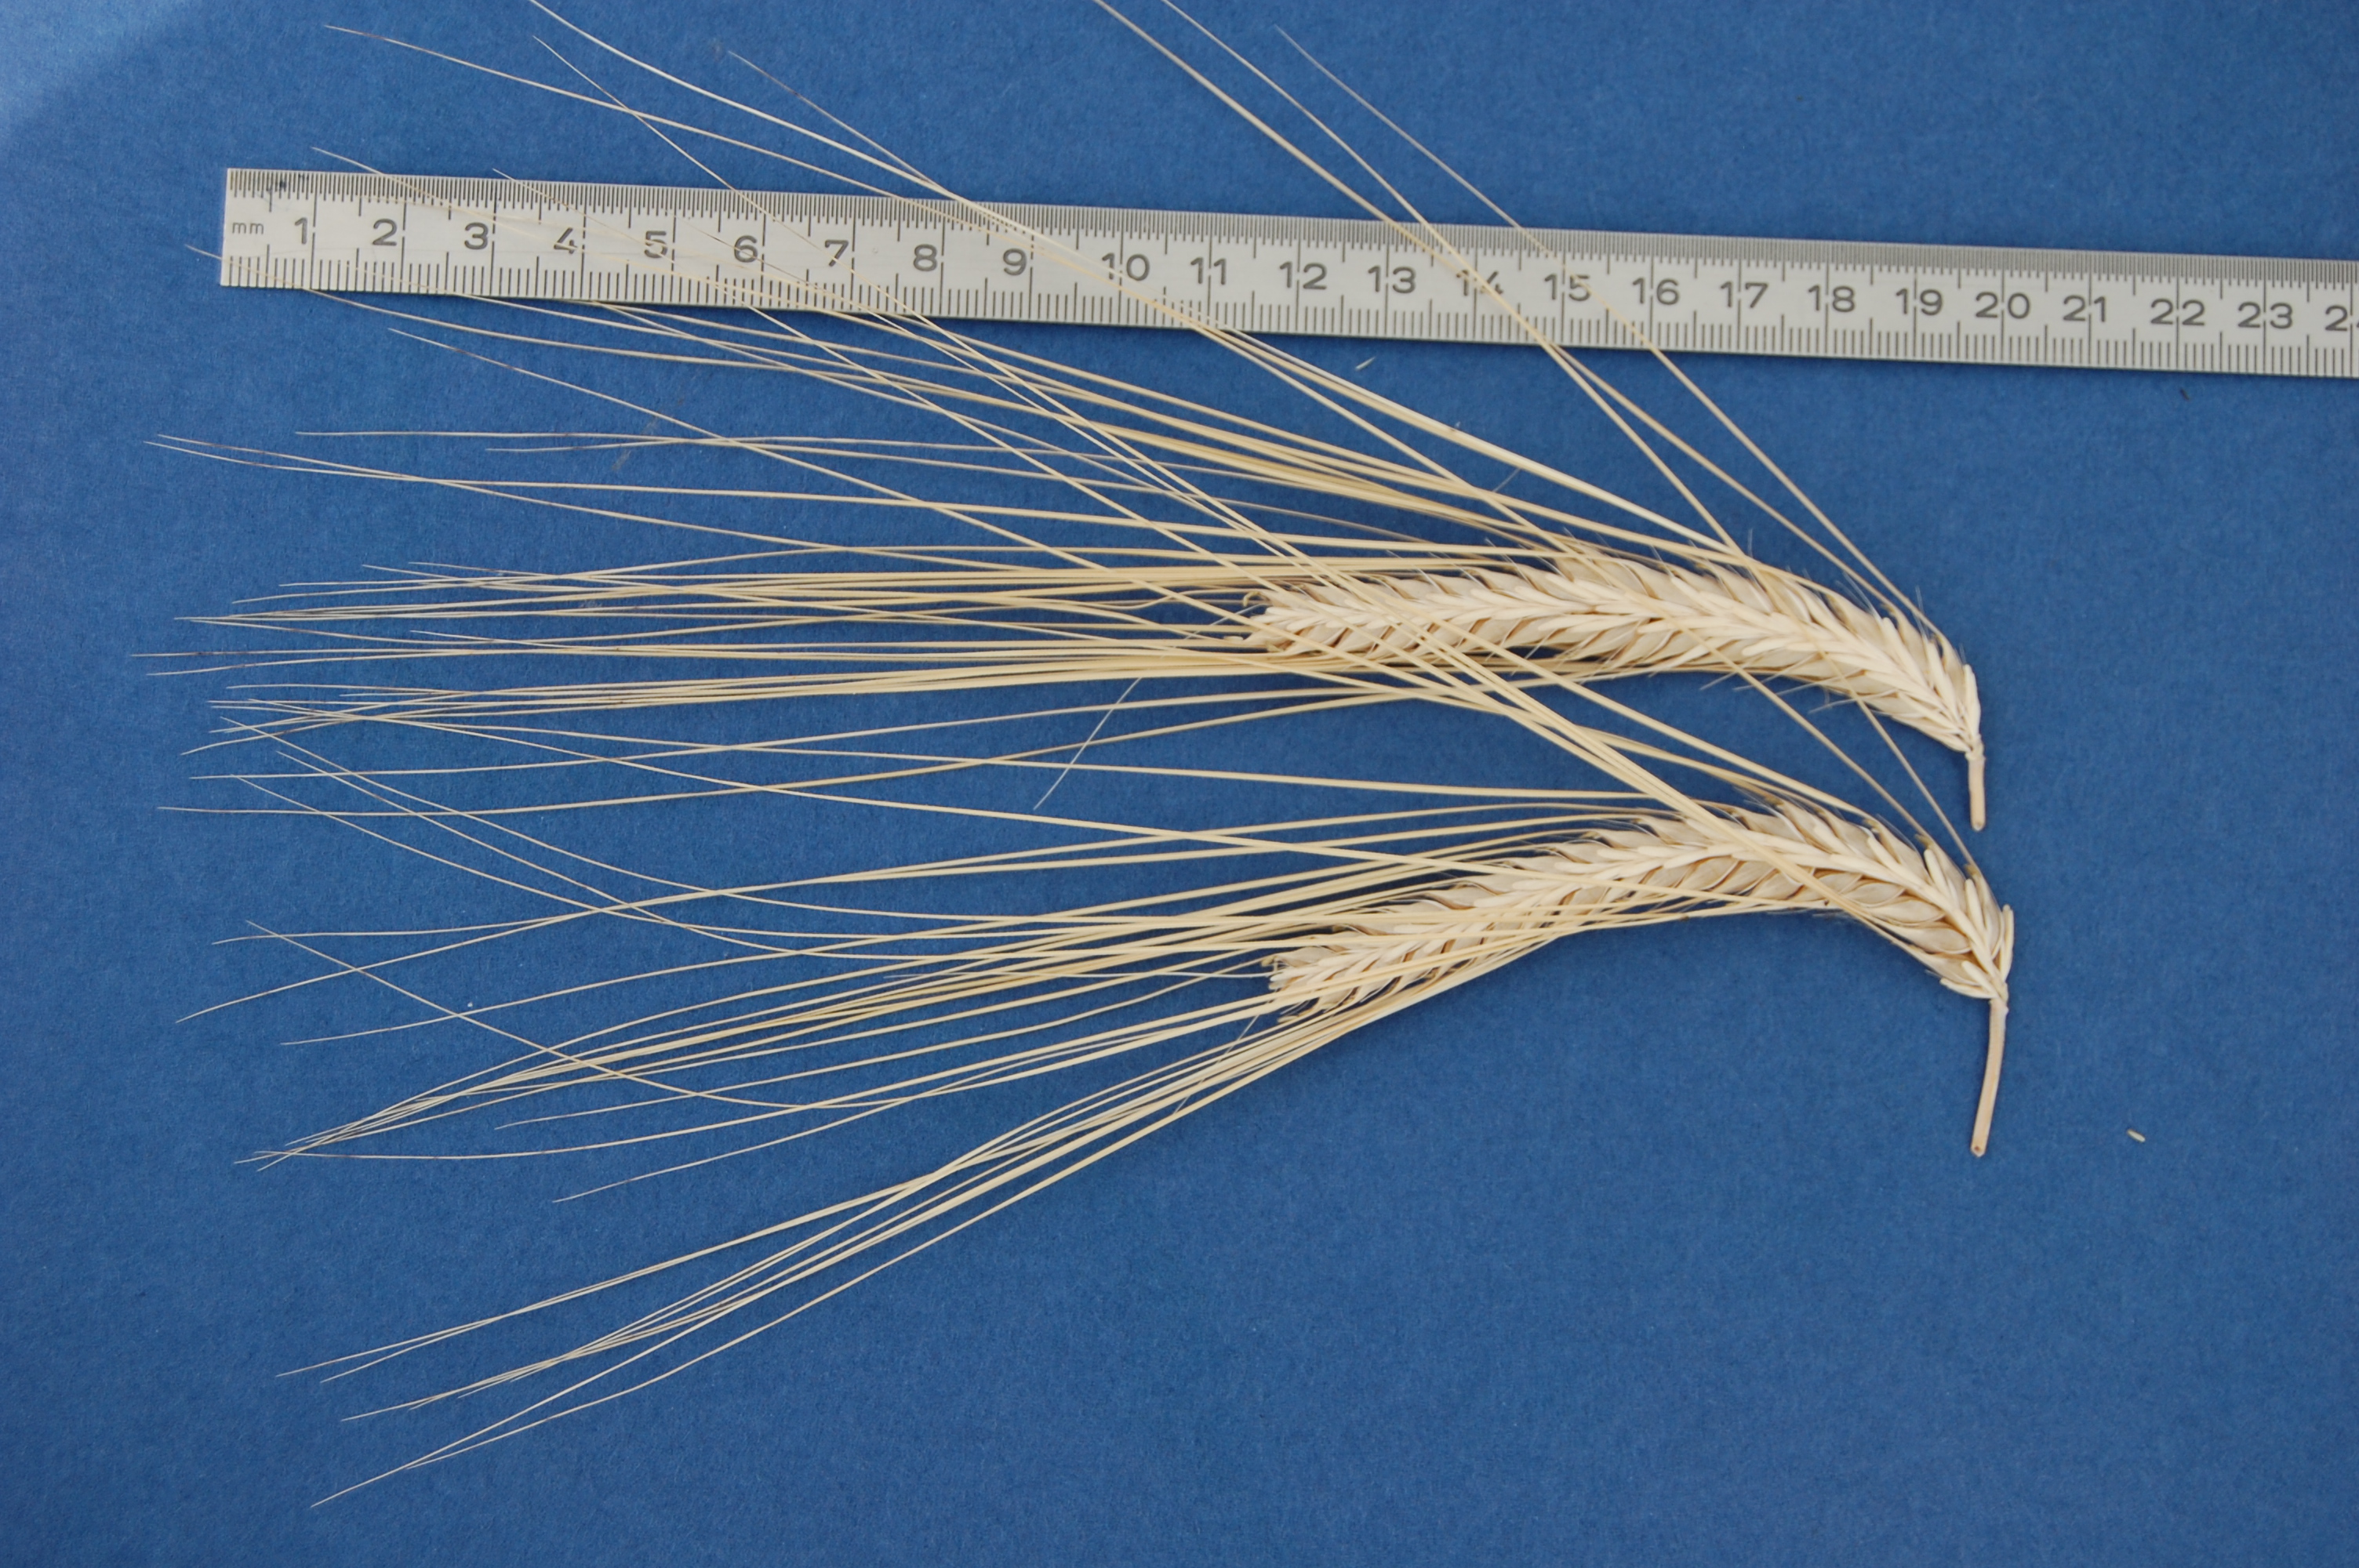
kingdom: Plantae
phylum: Tracheophyta
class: Liliopsida
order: Poales
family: Poaceae
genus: Hordeum
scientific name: Hordeum vulgare
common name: Common barley
